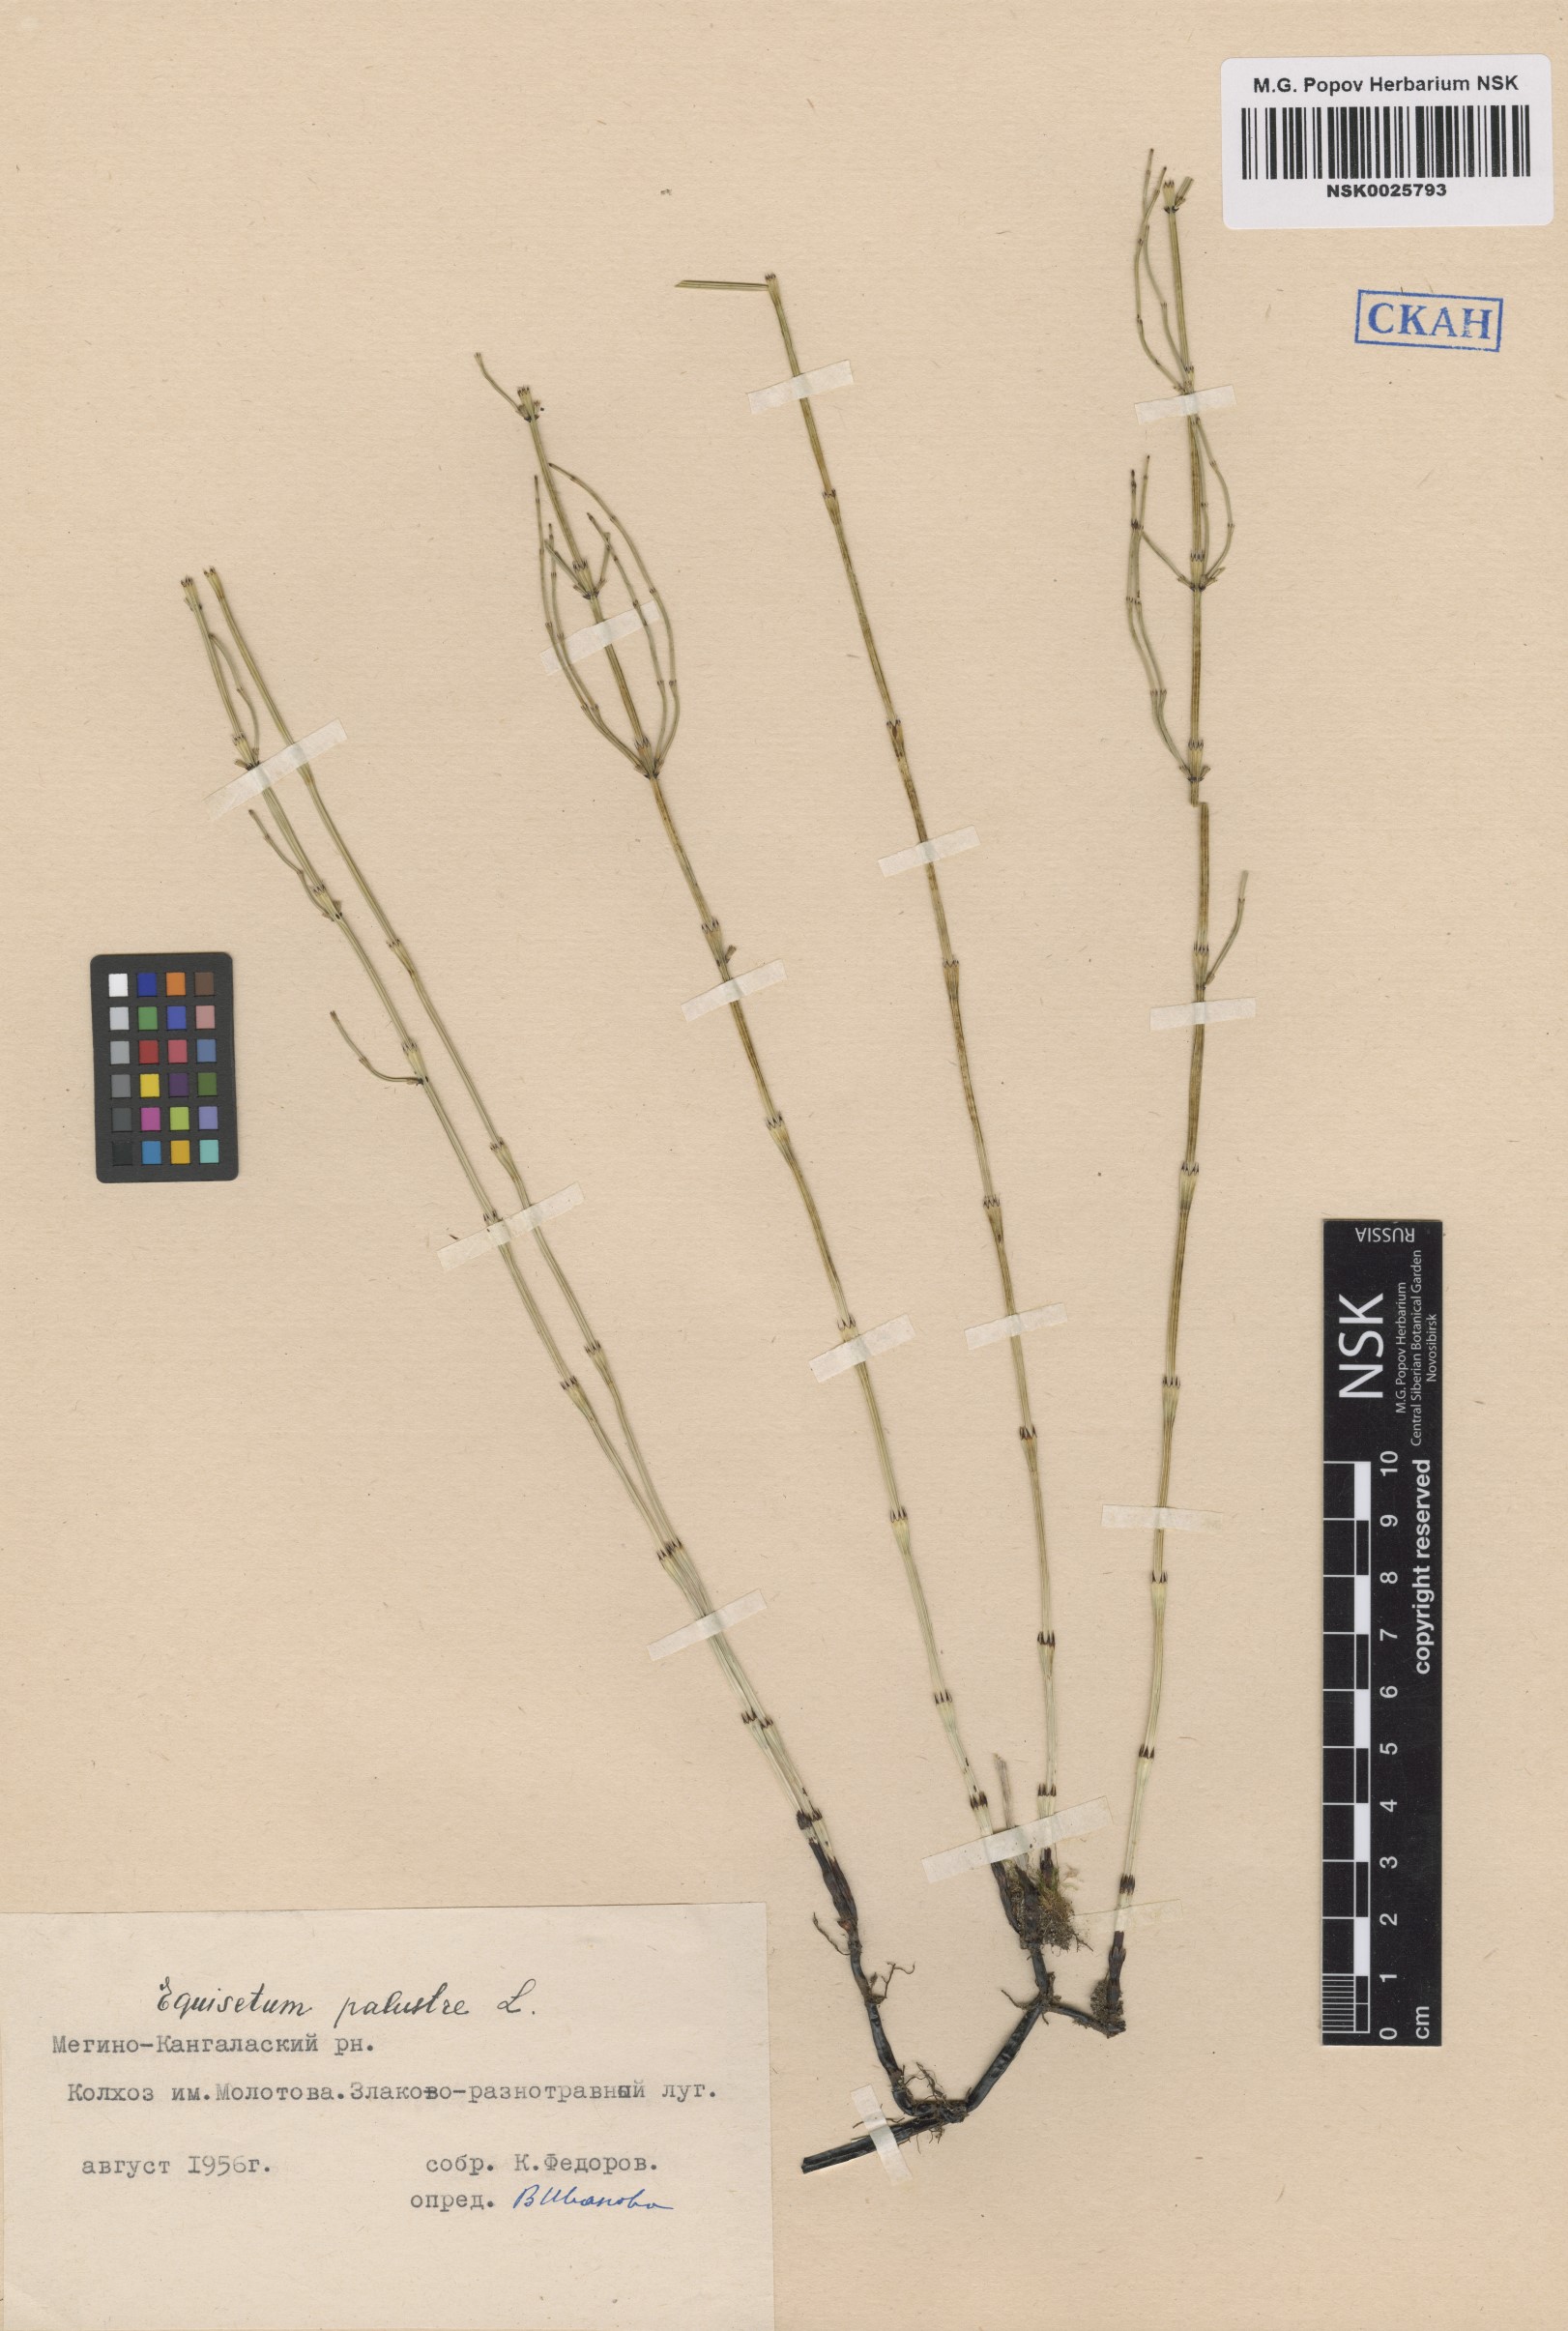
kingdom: Plantae
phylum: Tracheophyta
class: Polypodiopsida
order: Equisetales
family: Equisetaceae
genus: Equisetum
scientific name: Equisetum palustre
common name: Marsh horsetail
